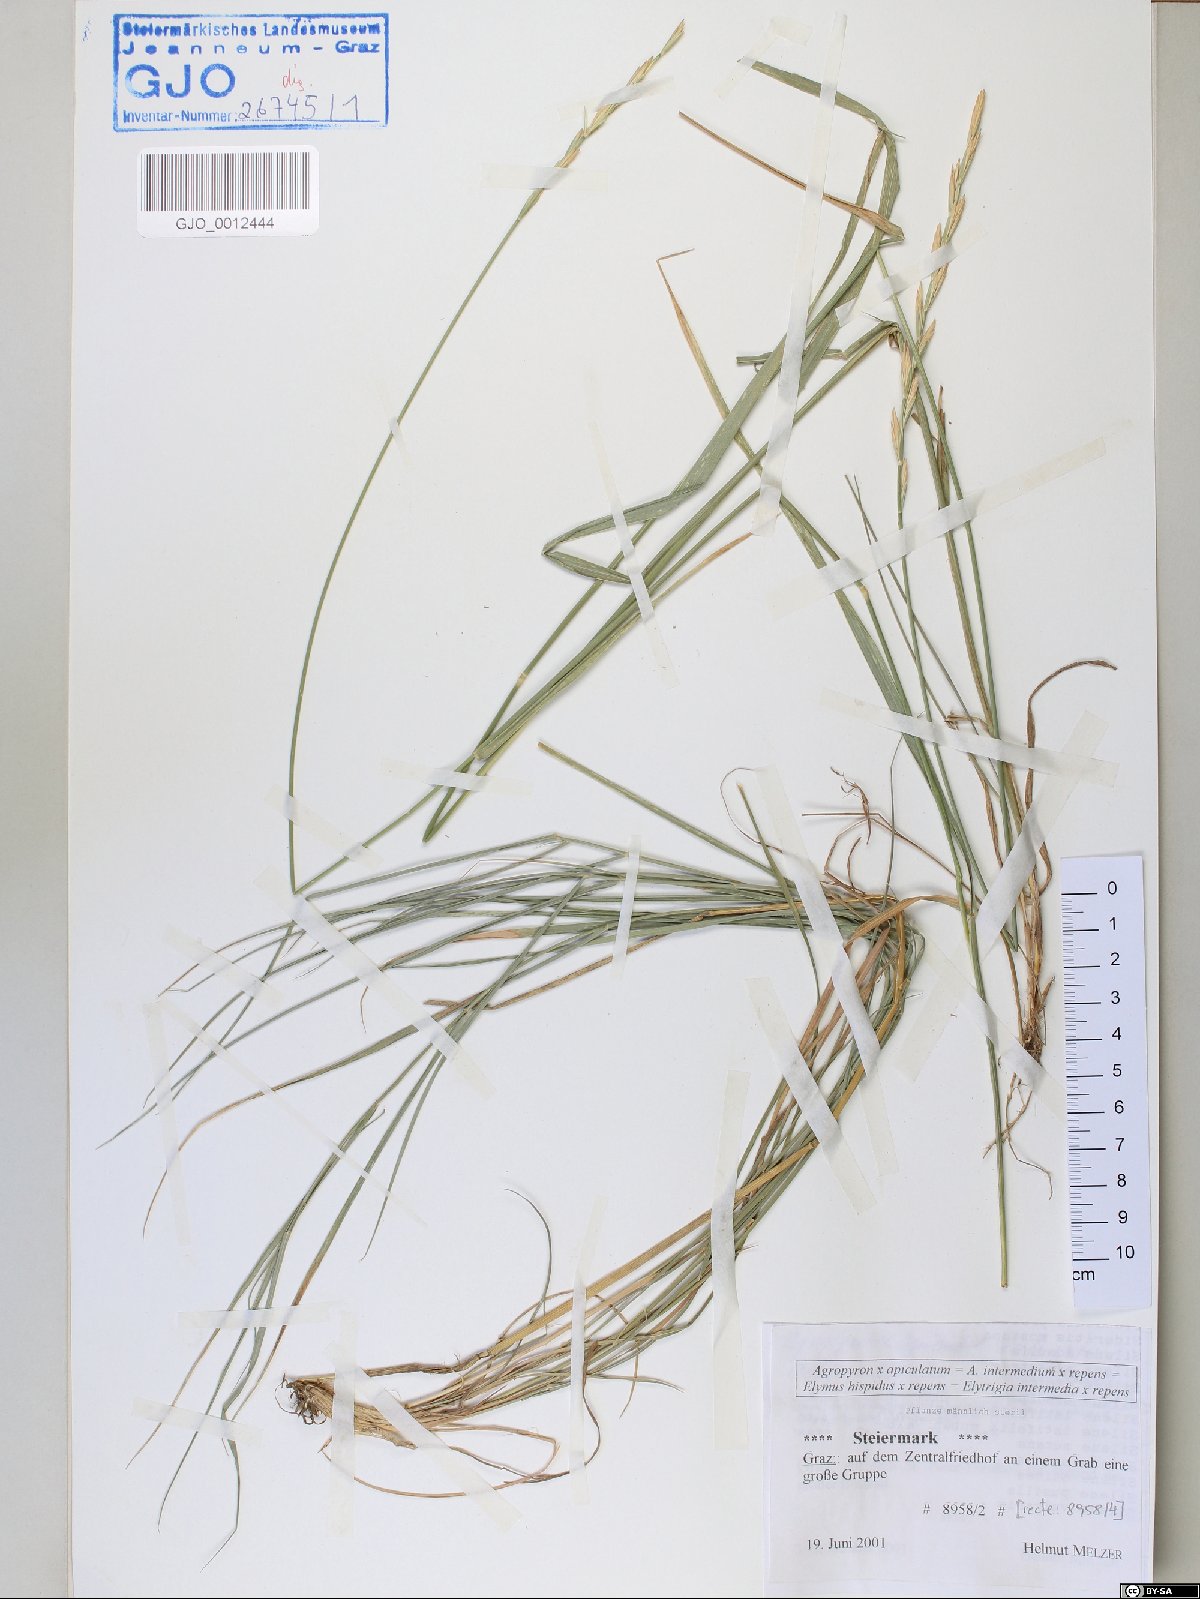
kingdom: Plantae
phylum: Tracheophyta
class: Liliopsida
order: Poales
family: Poaceae
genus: Elymus
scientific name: Elymus apiculatus
